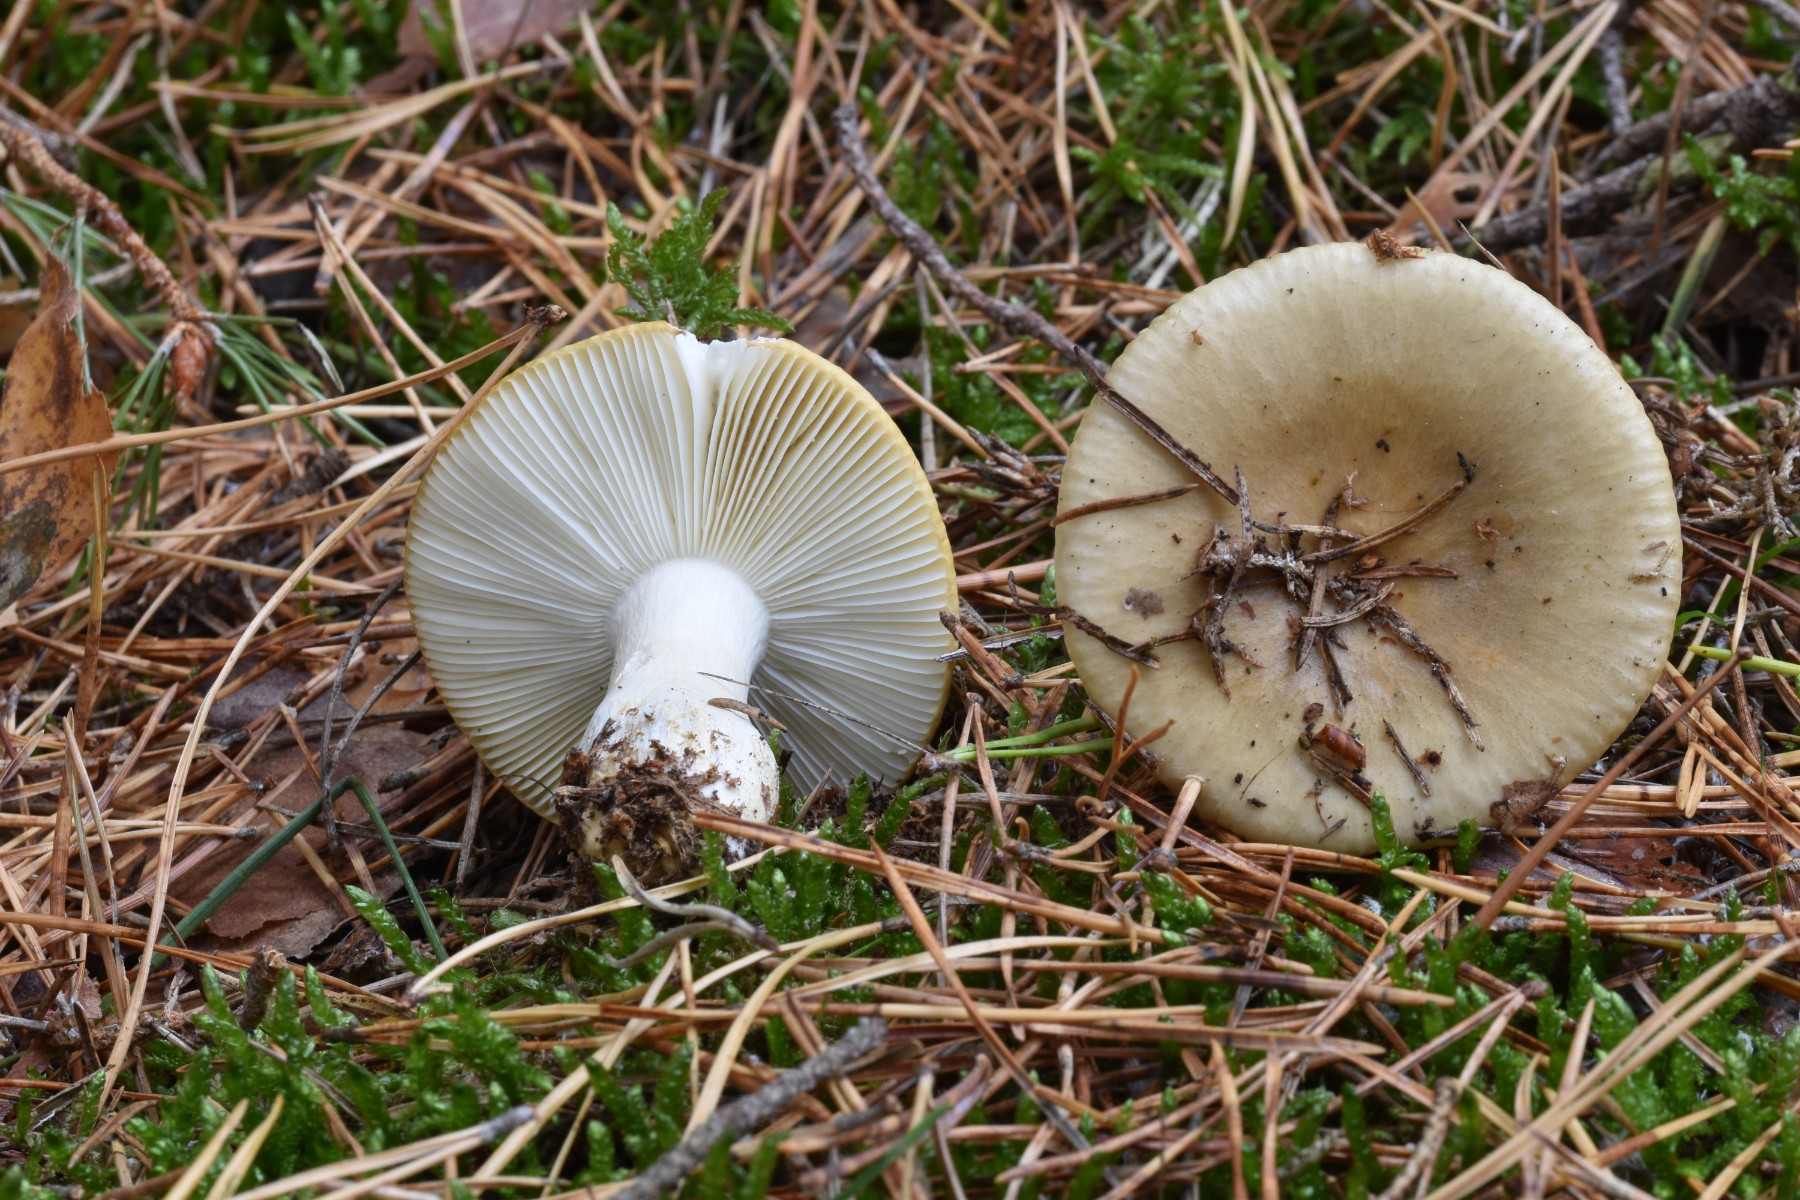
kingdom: Fungi
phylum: Basidiomycota
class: Agaricomycetes
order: Russulales
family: Russulaceae
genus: Russula
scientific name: Russula ochroleuca
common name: okkergul skørhat
